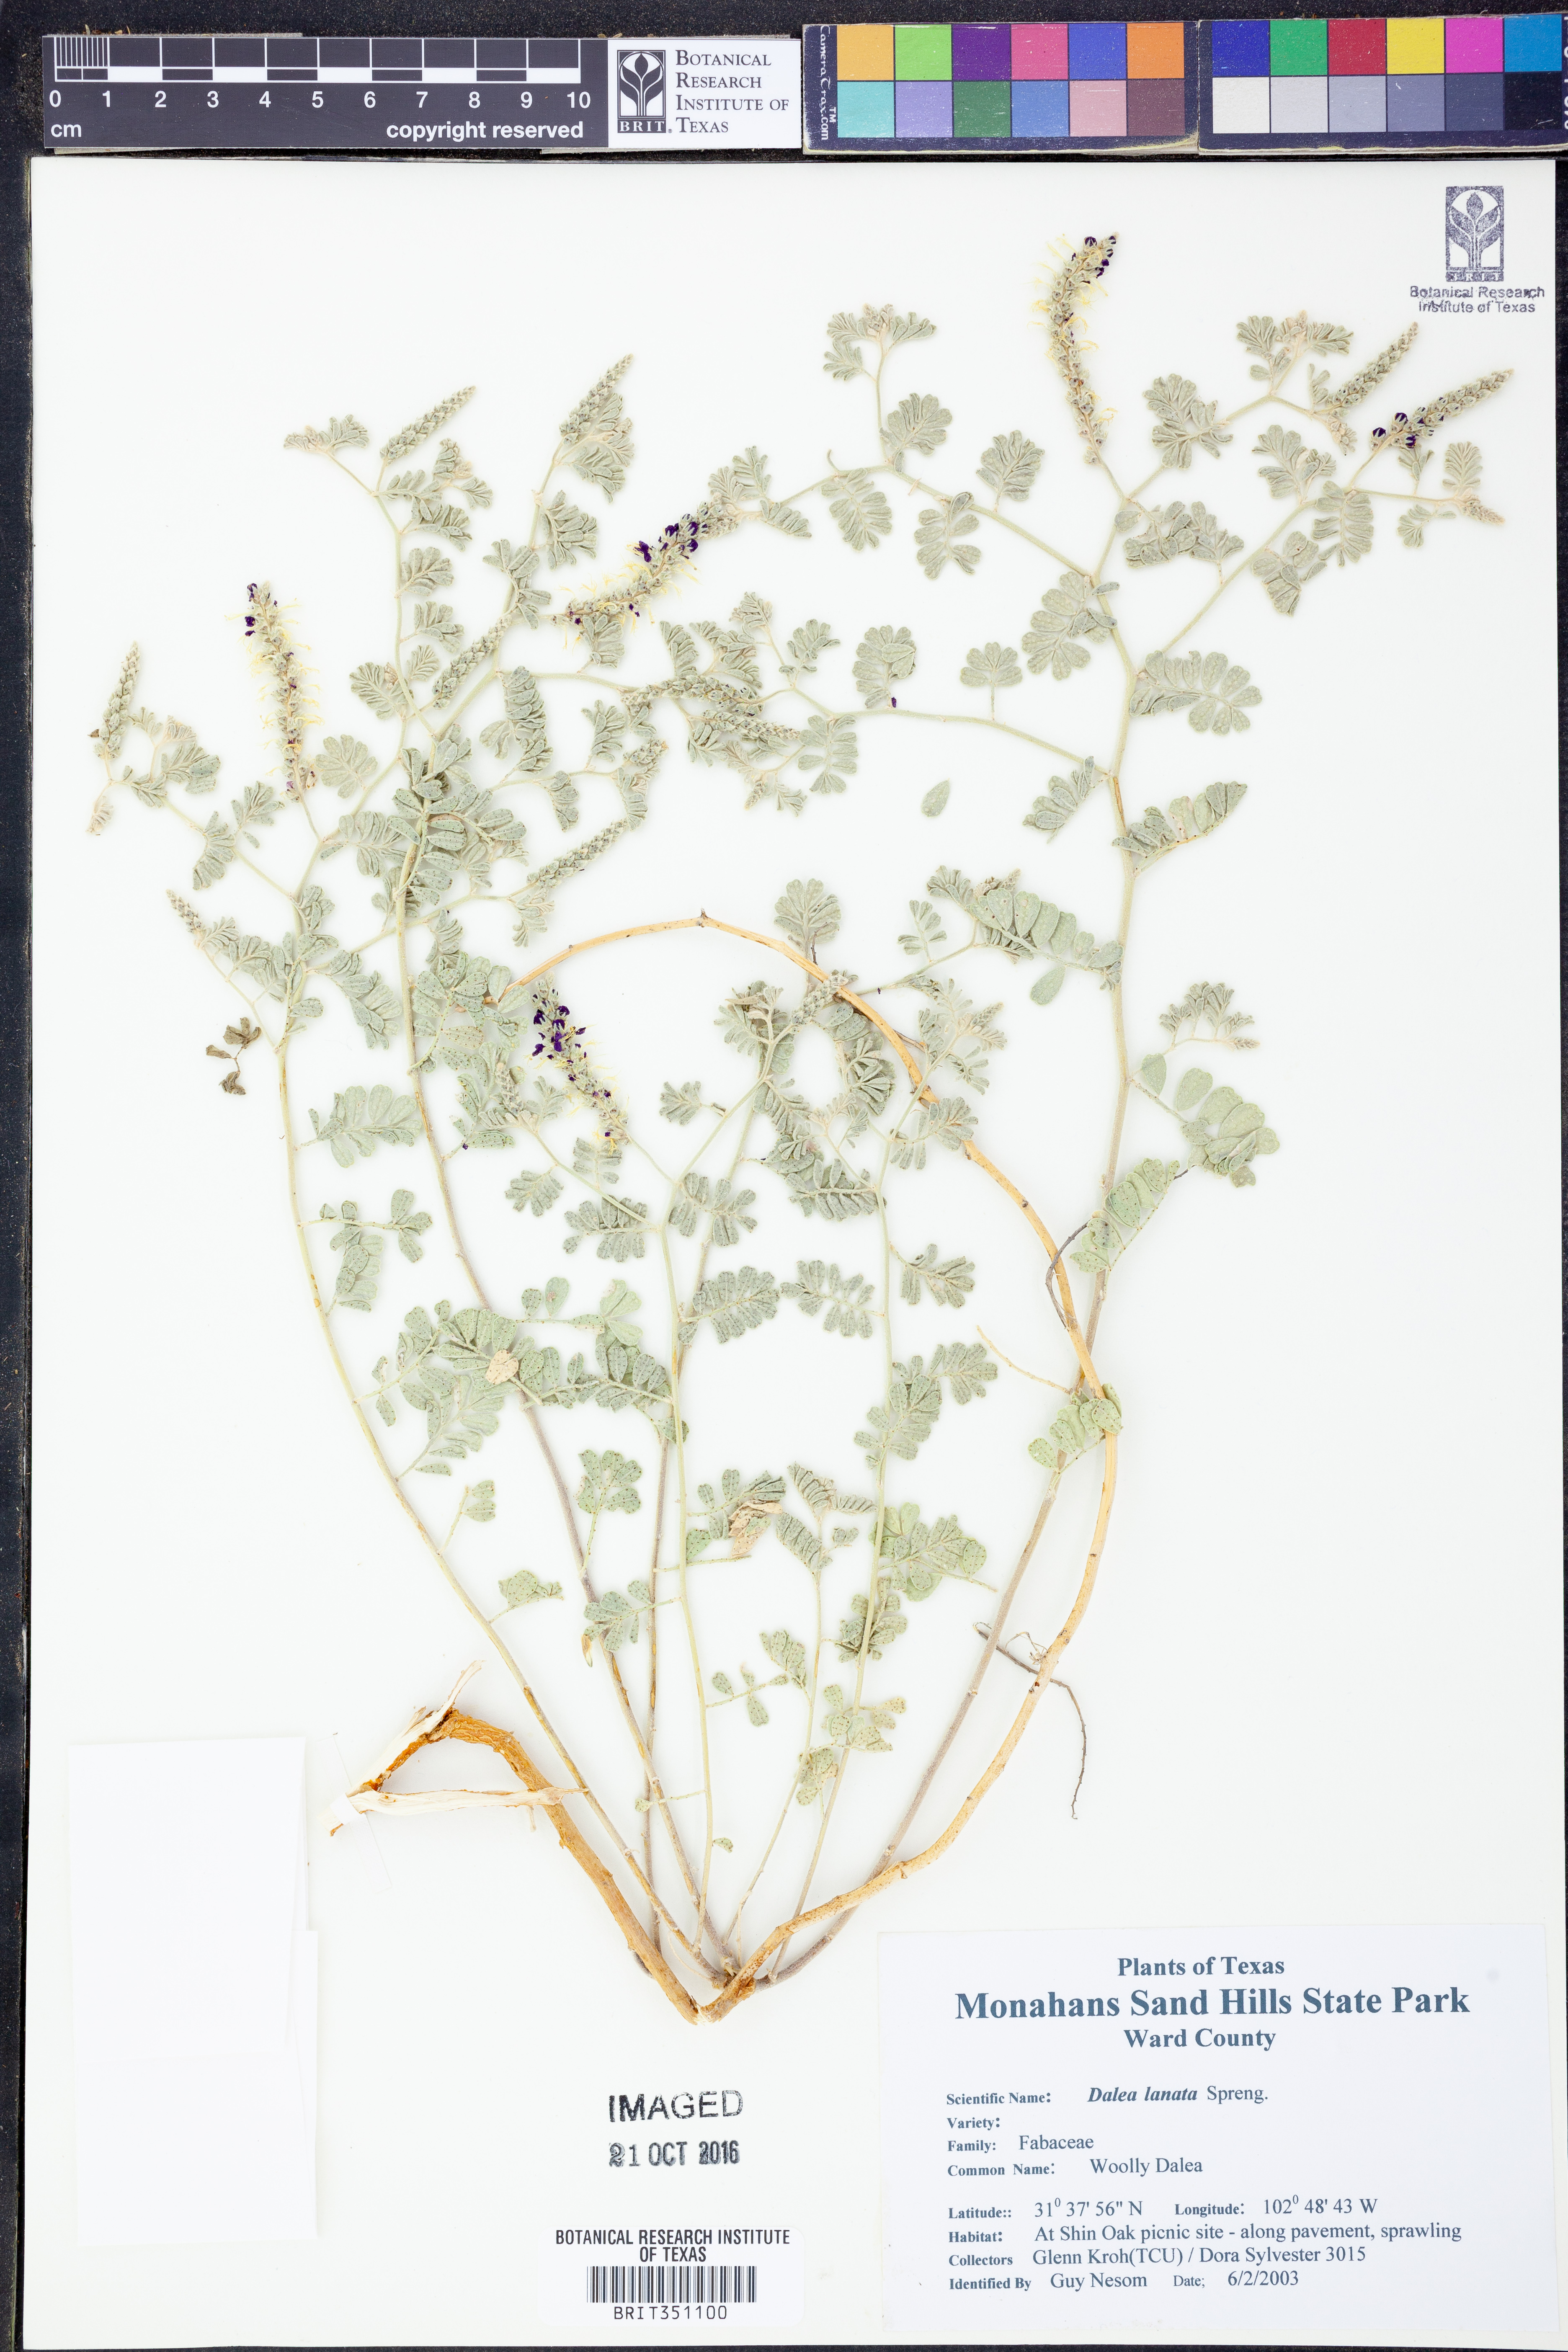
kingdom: Plantae
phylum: Tracheophyta
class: Magnoliopsida
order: Fabales
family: Fabaceae
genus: Dalea
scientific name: Dalea lanata
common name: Woolly dalea
